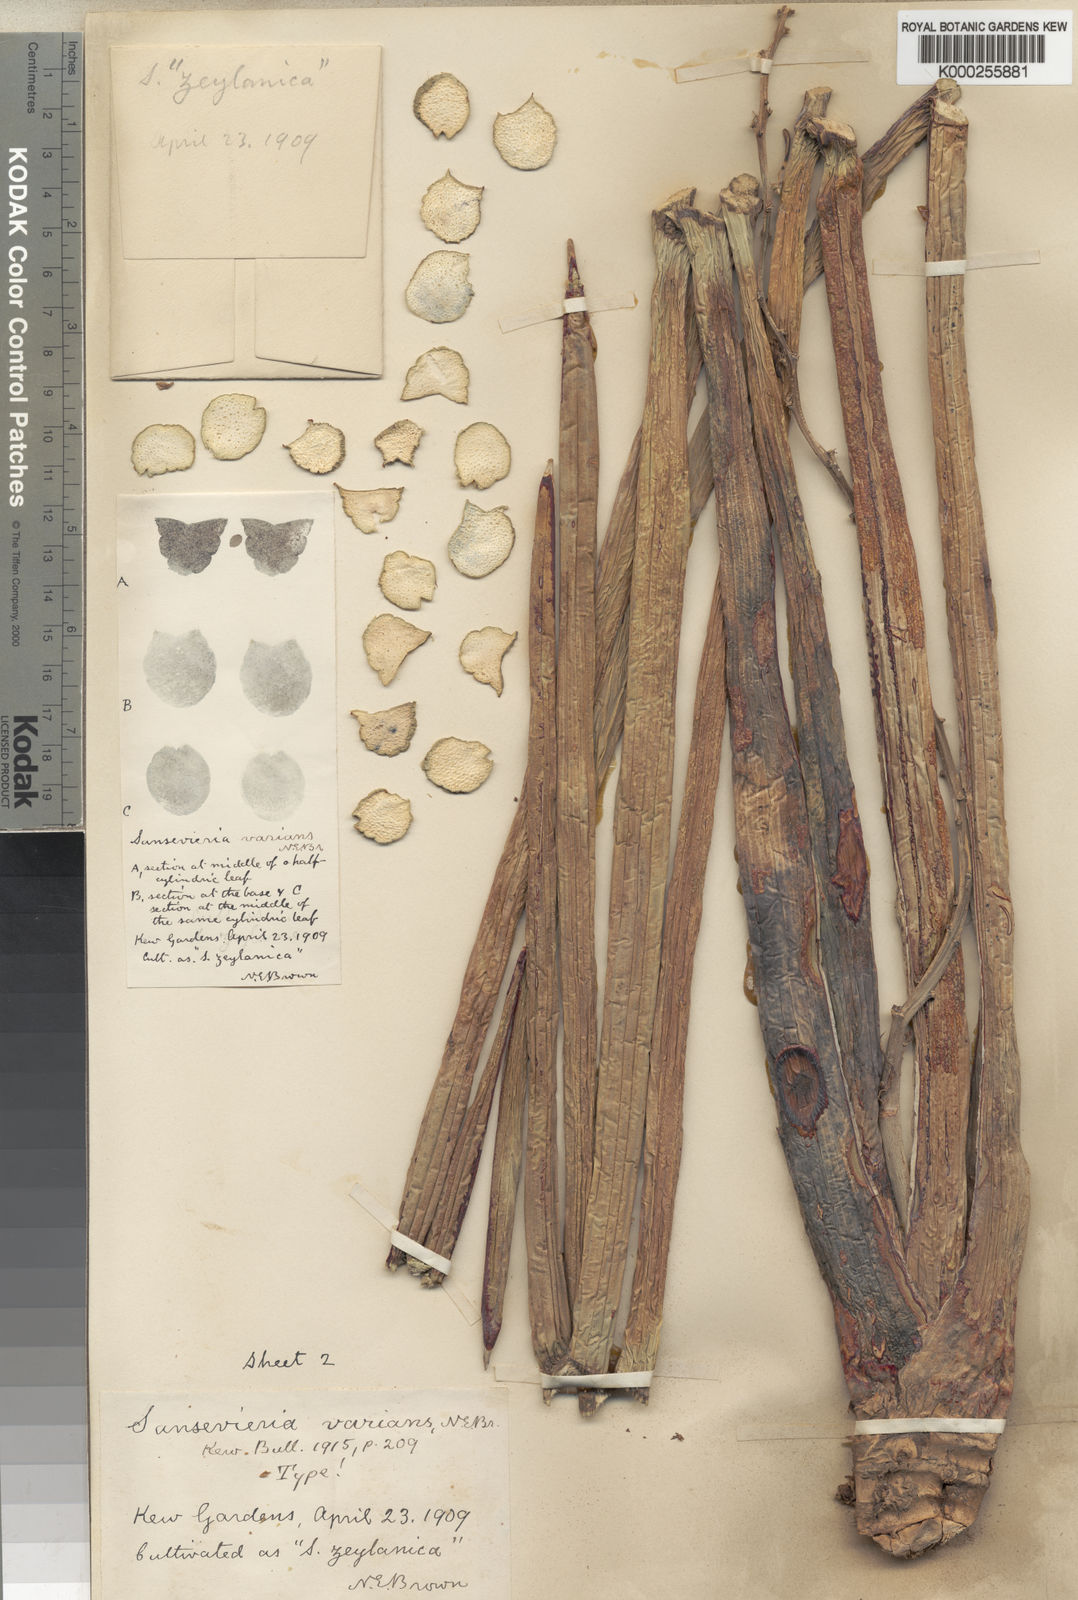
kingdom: Plantae
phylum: Tracheophyta
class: Liliopsida
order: Asparagales
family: Asparagaceae
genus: Dracaena
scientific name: Dracaena varians
